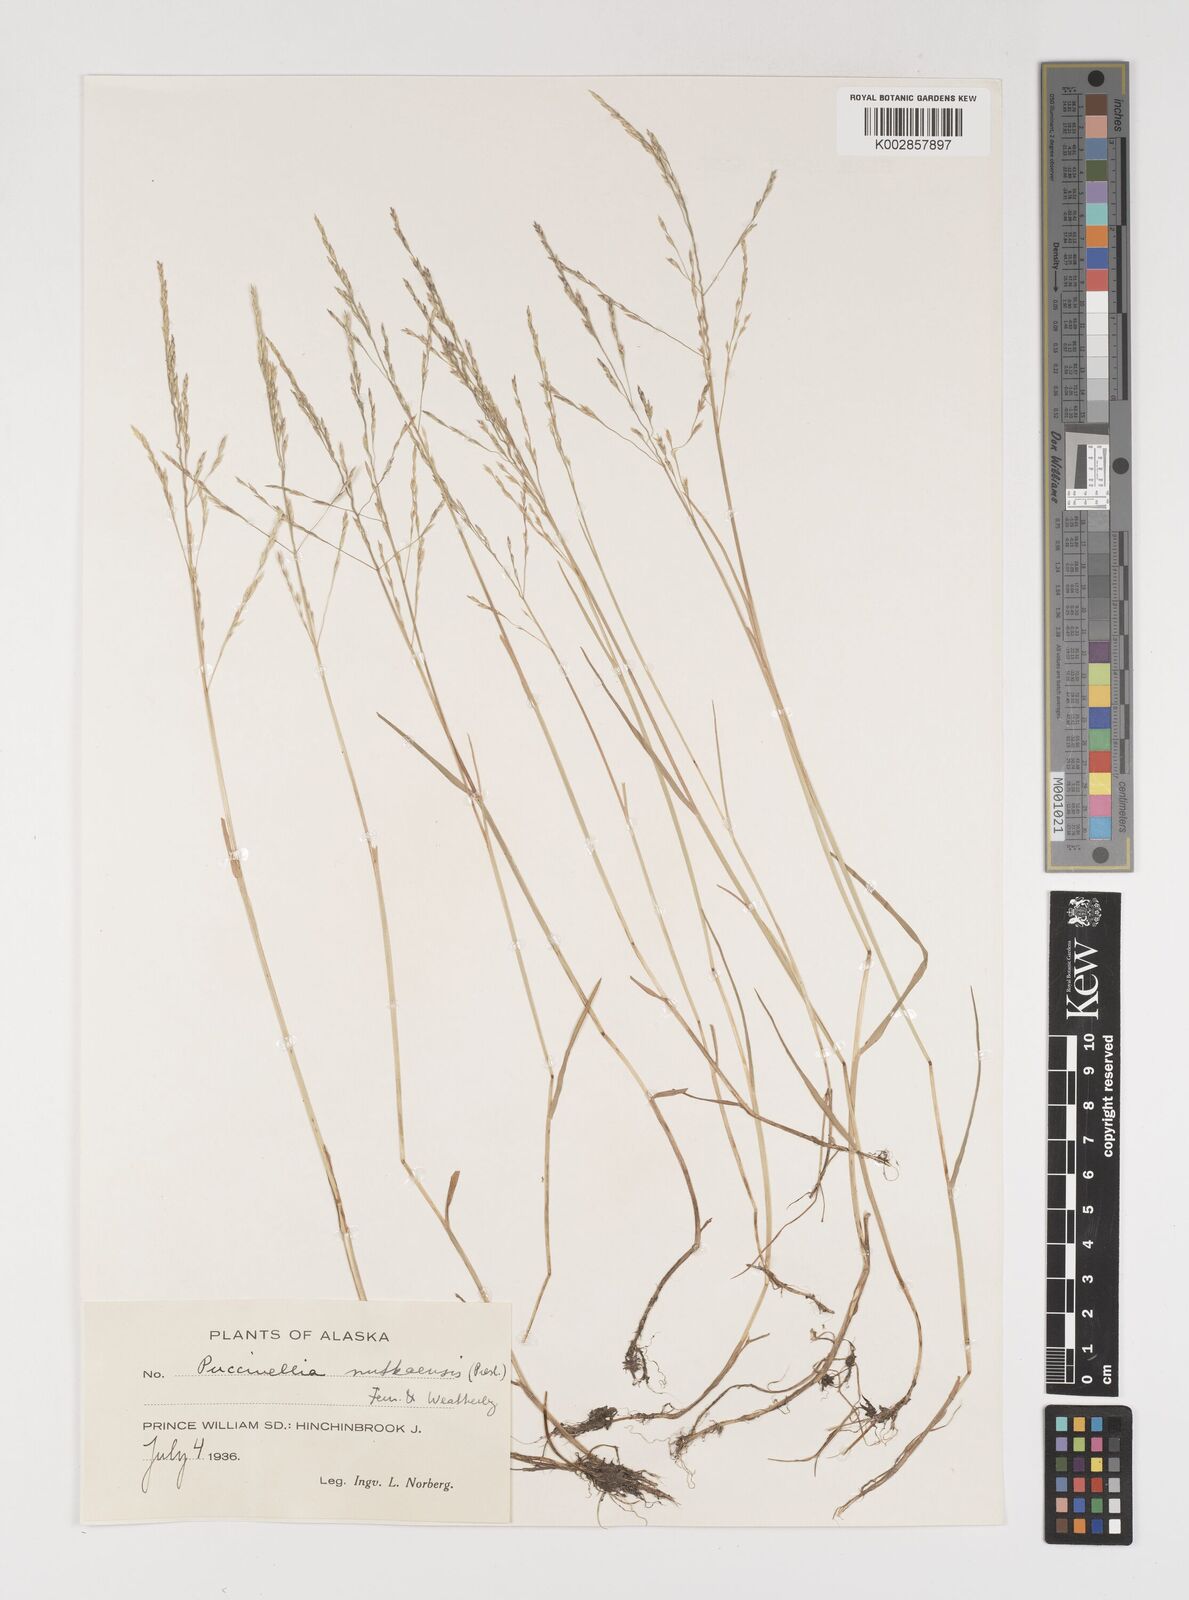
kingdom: Plantae
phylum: Tracheophyta
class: Liliopsida
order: Poales
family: Poaceae
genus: Puccinellia
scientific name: Puccinellia
